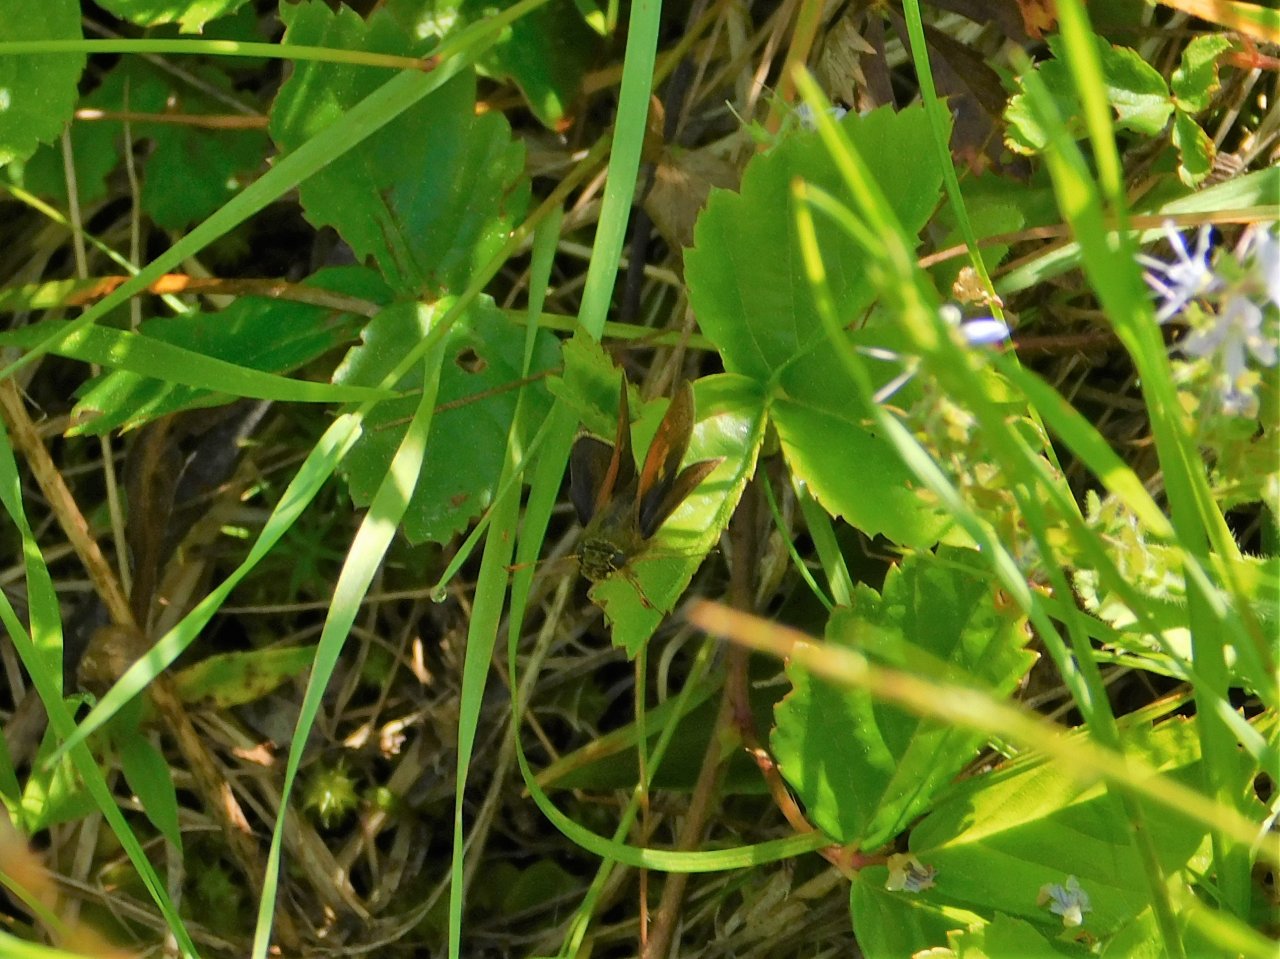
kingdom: Animalia
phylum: Arthropoda
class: Insecta
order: Lepidoptera
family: Hesperiidae
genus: Polites
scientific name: Polites themistocles
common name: Tawny-edged Skipper
